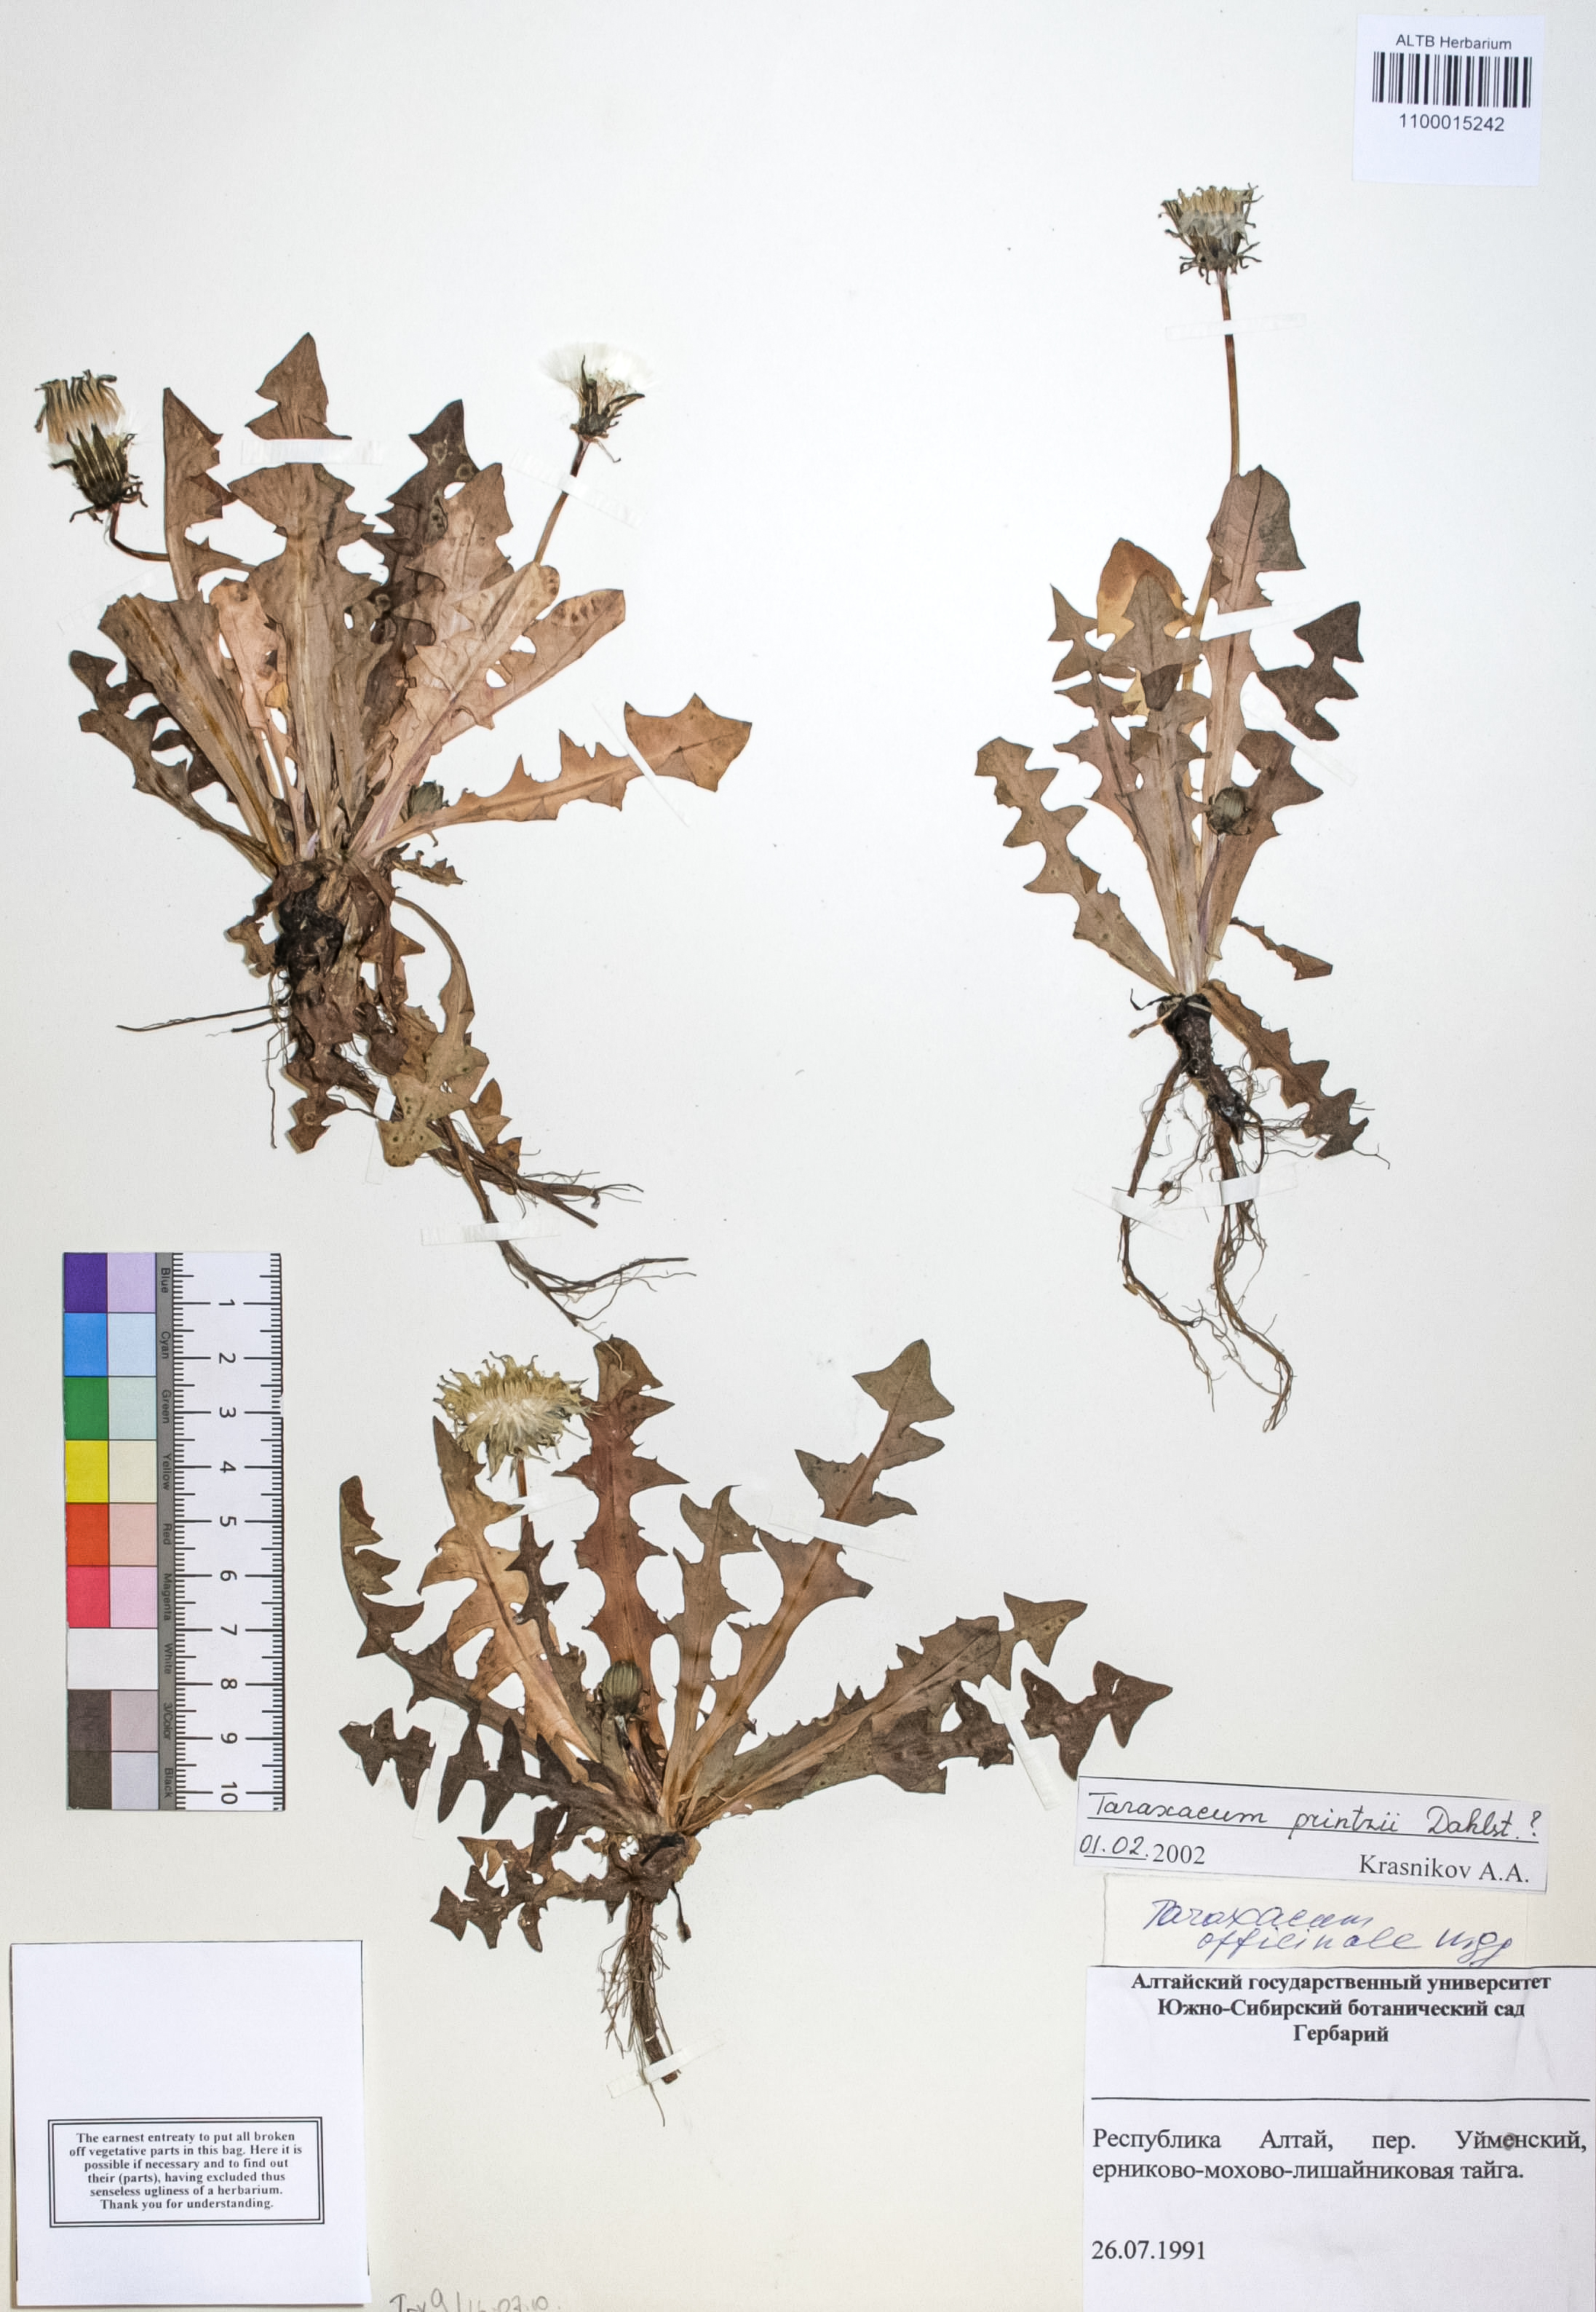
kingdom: Plantae
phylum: Tracheophyta
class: Magnoliopsida
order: Asterales
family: Asteraceae
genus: Taraxacum
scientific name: Taraxacum longicorne
